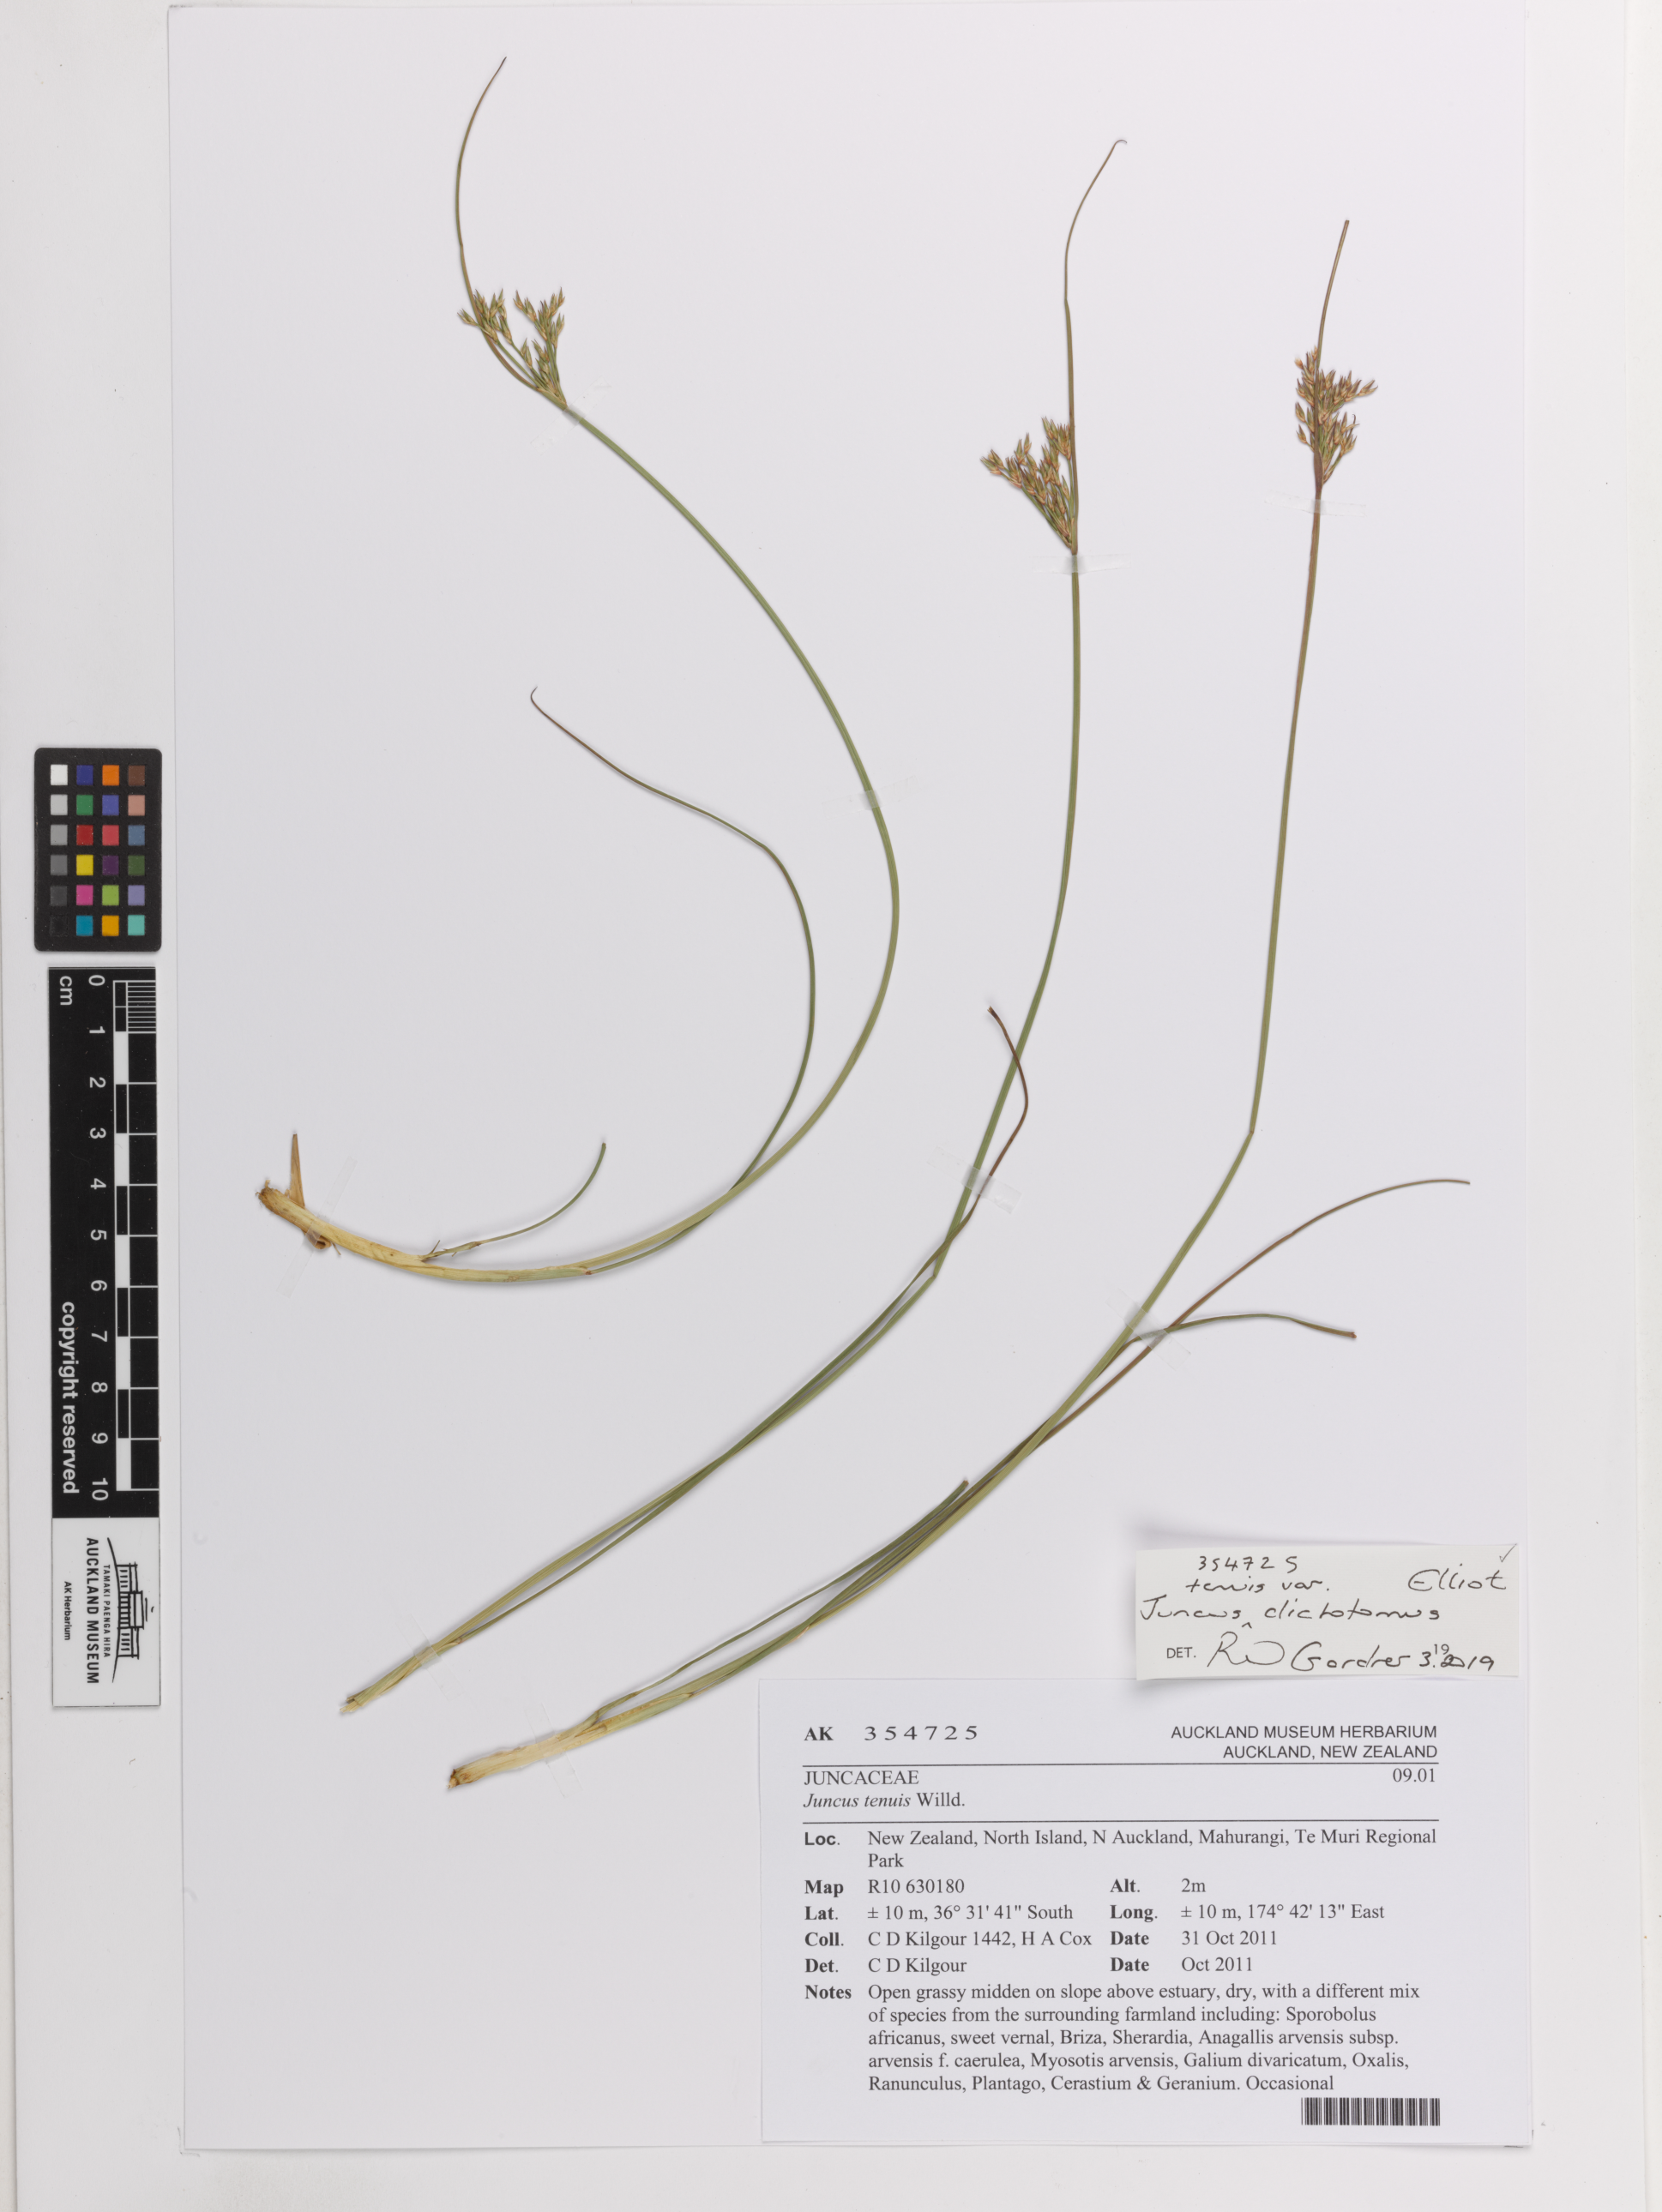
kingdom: Plantae
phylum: Tracheophyta
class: Liliopsida
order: Poales
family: Juncaceae
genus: Juncus
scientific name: Juncus dichotomus
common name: Forked rush
